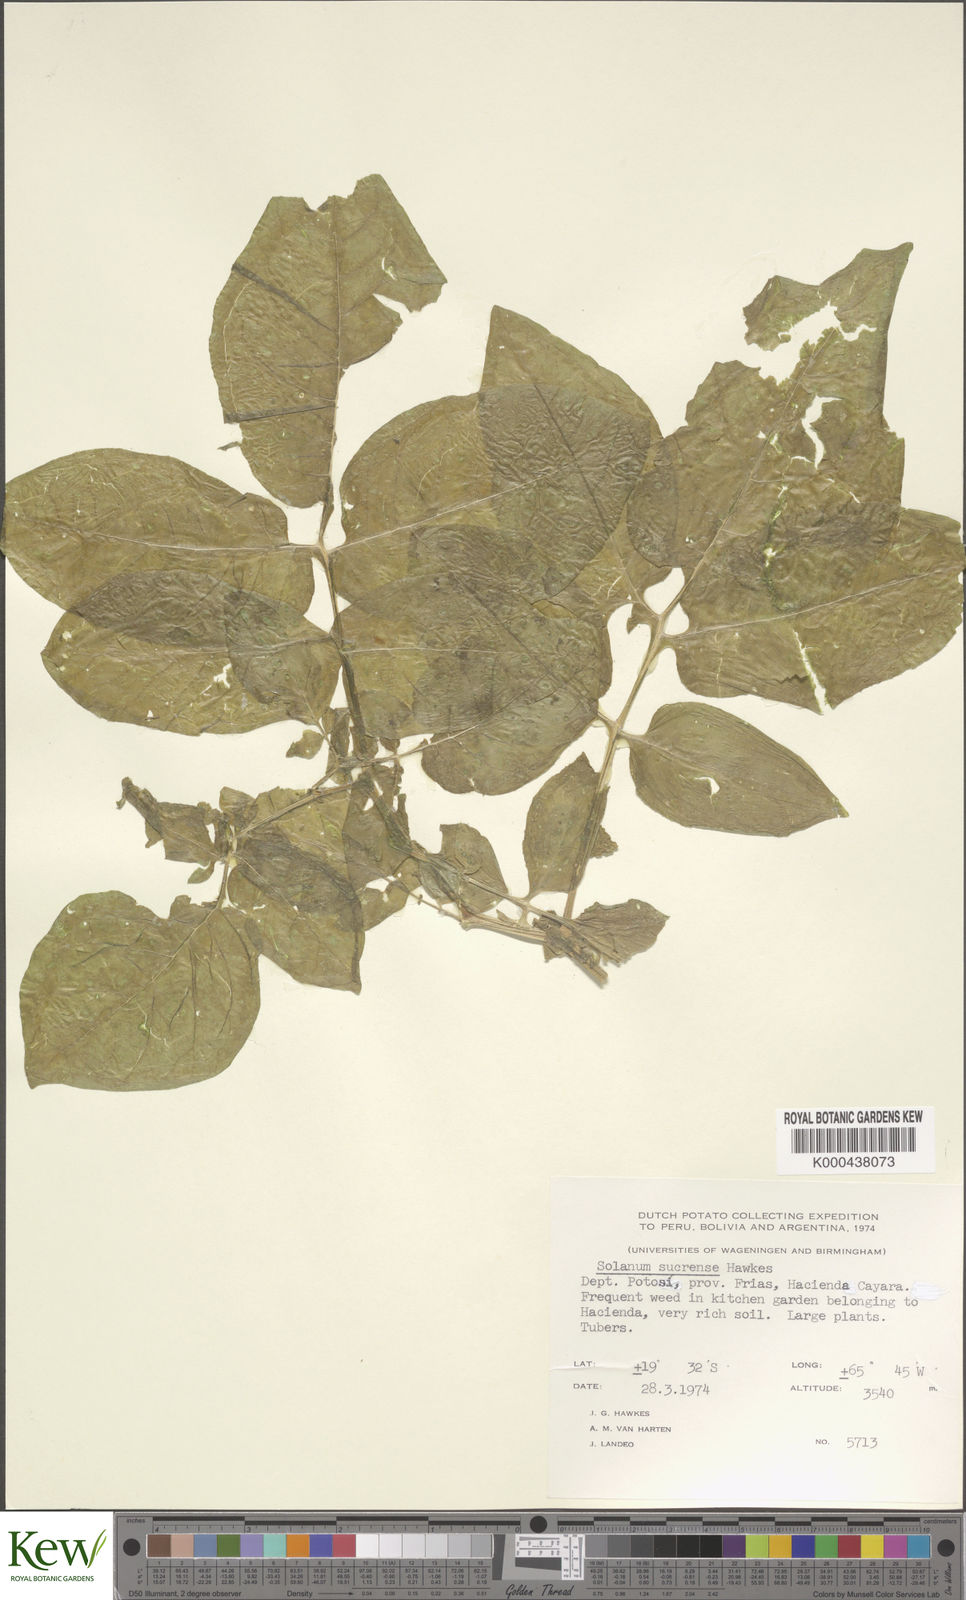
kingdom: Plantae
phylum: Tracheophyta
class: Magnoliopsida
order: Solanales
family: Solanaceae
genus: Solanum
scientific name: Solanum brevicaule
